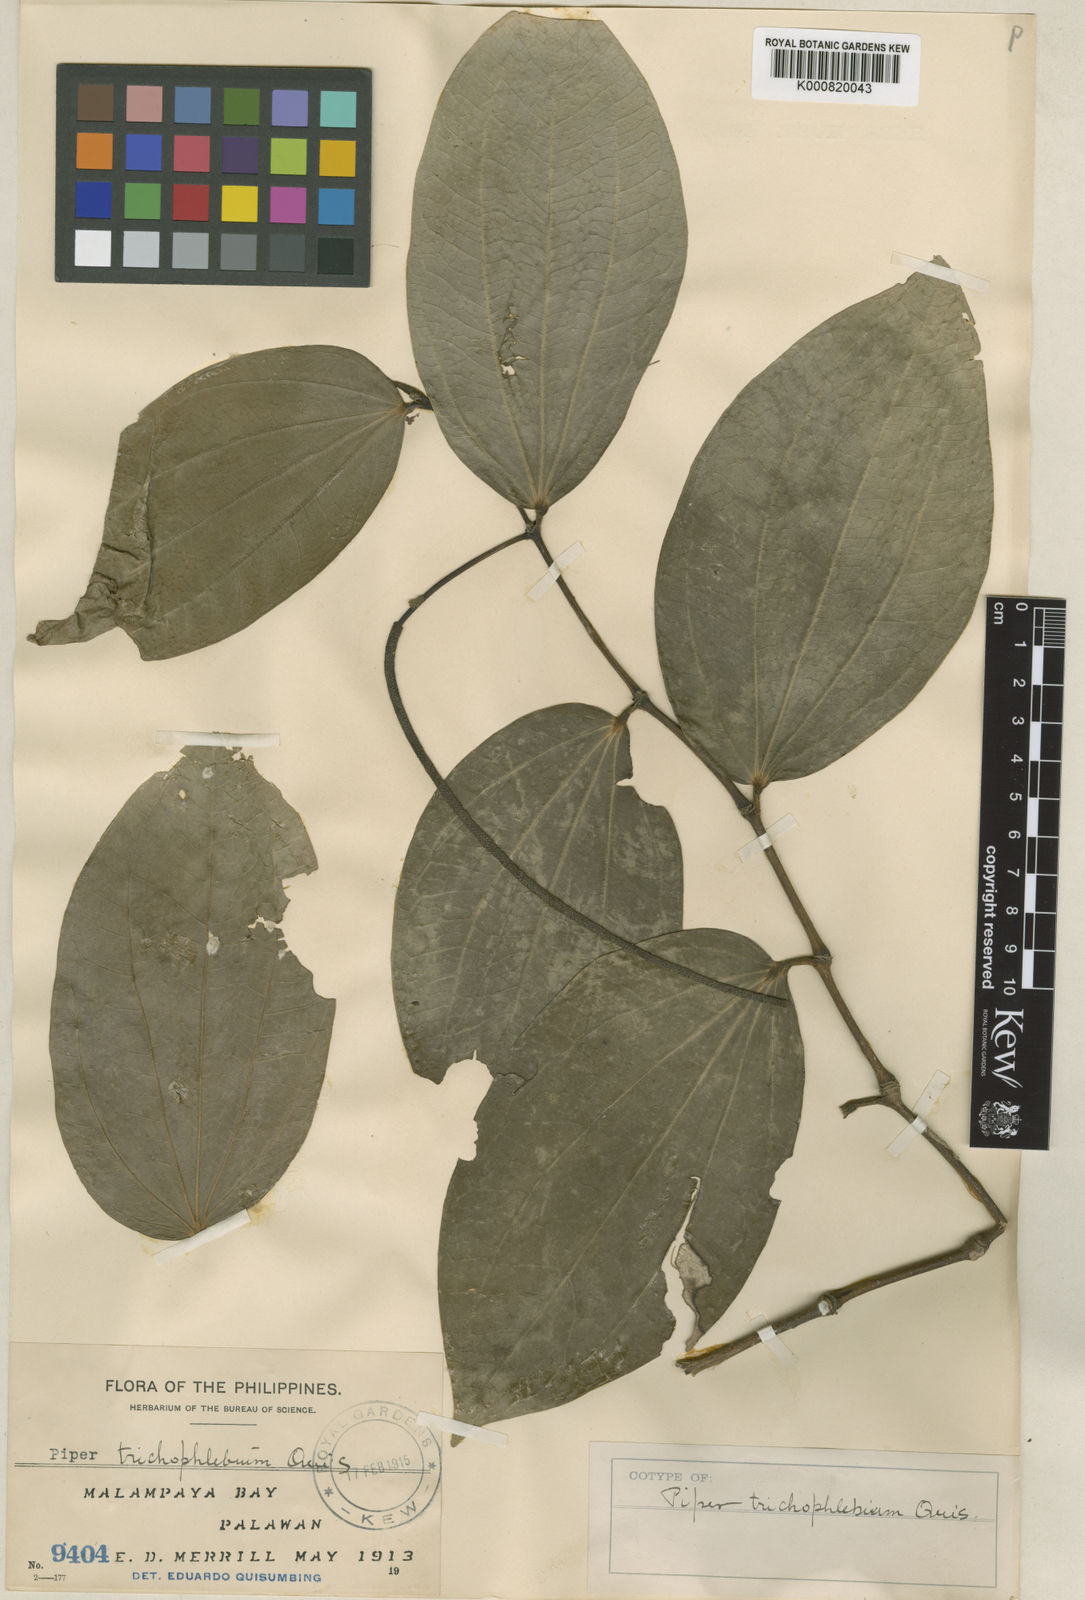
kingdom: Plantae
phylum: Tracheophyta
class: Magnoliopsida
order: Piperales
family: Piperaceae
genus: Piper
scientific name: Piper macropiper
